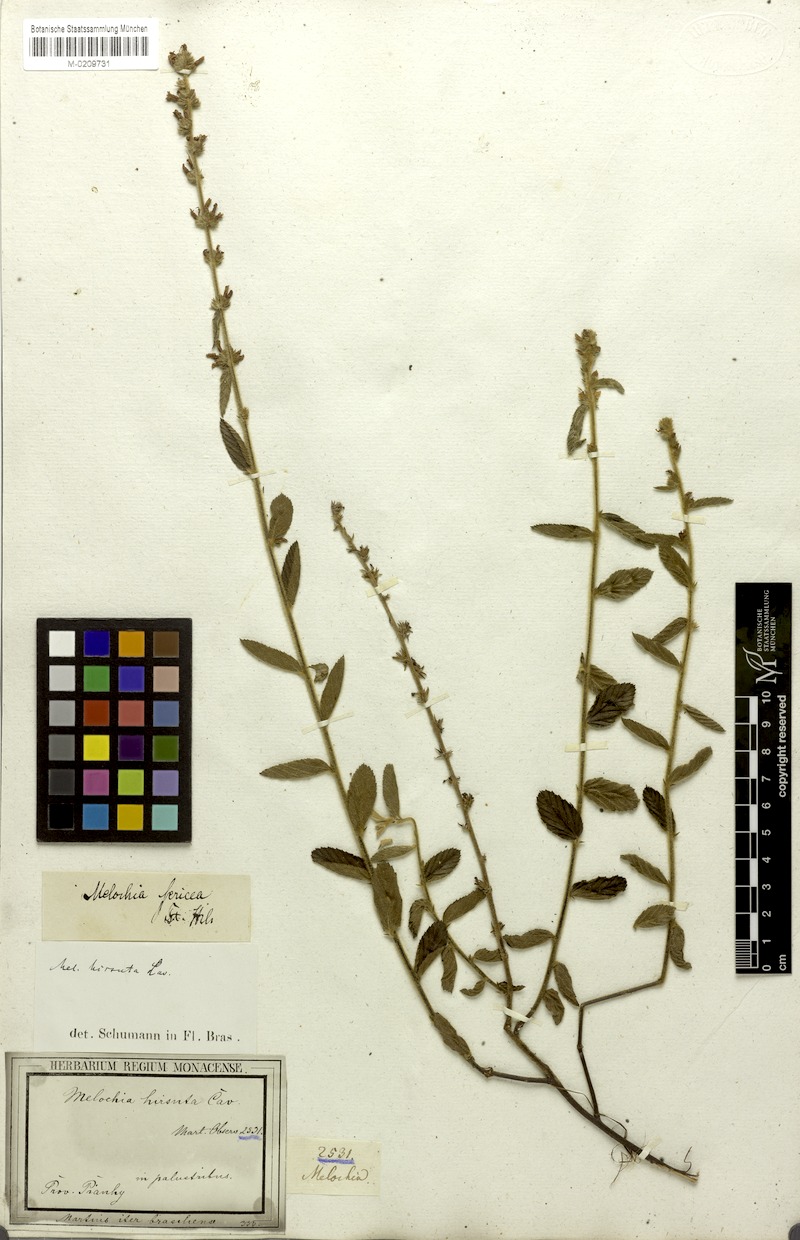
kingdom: Plantae
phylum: Tracheophyta
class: Magnoliopsida
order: Malvales
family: Malvaceae
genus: Melochia
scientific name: Melochia spicata
